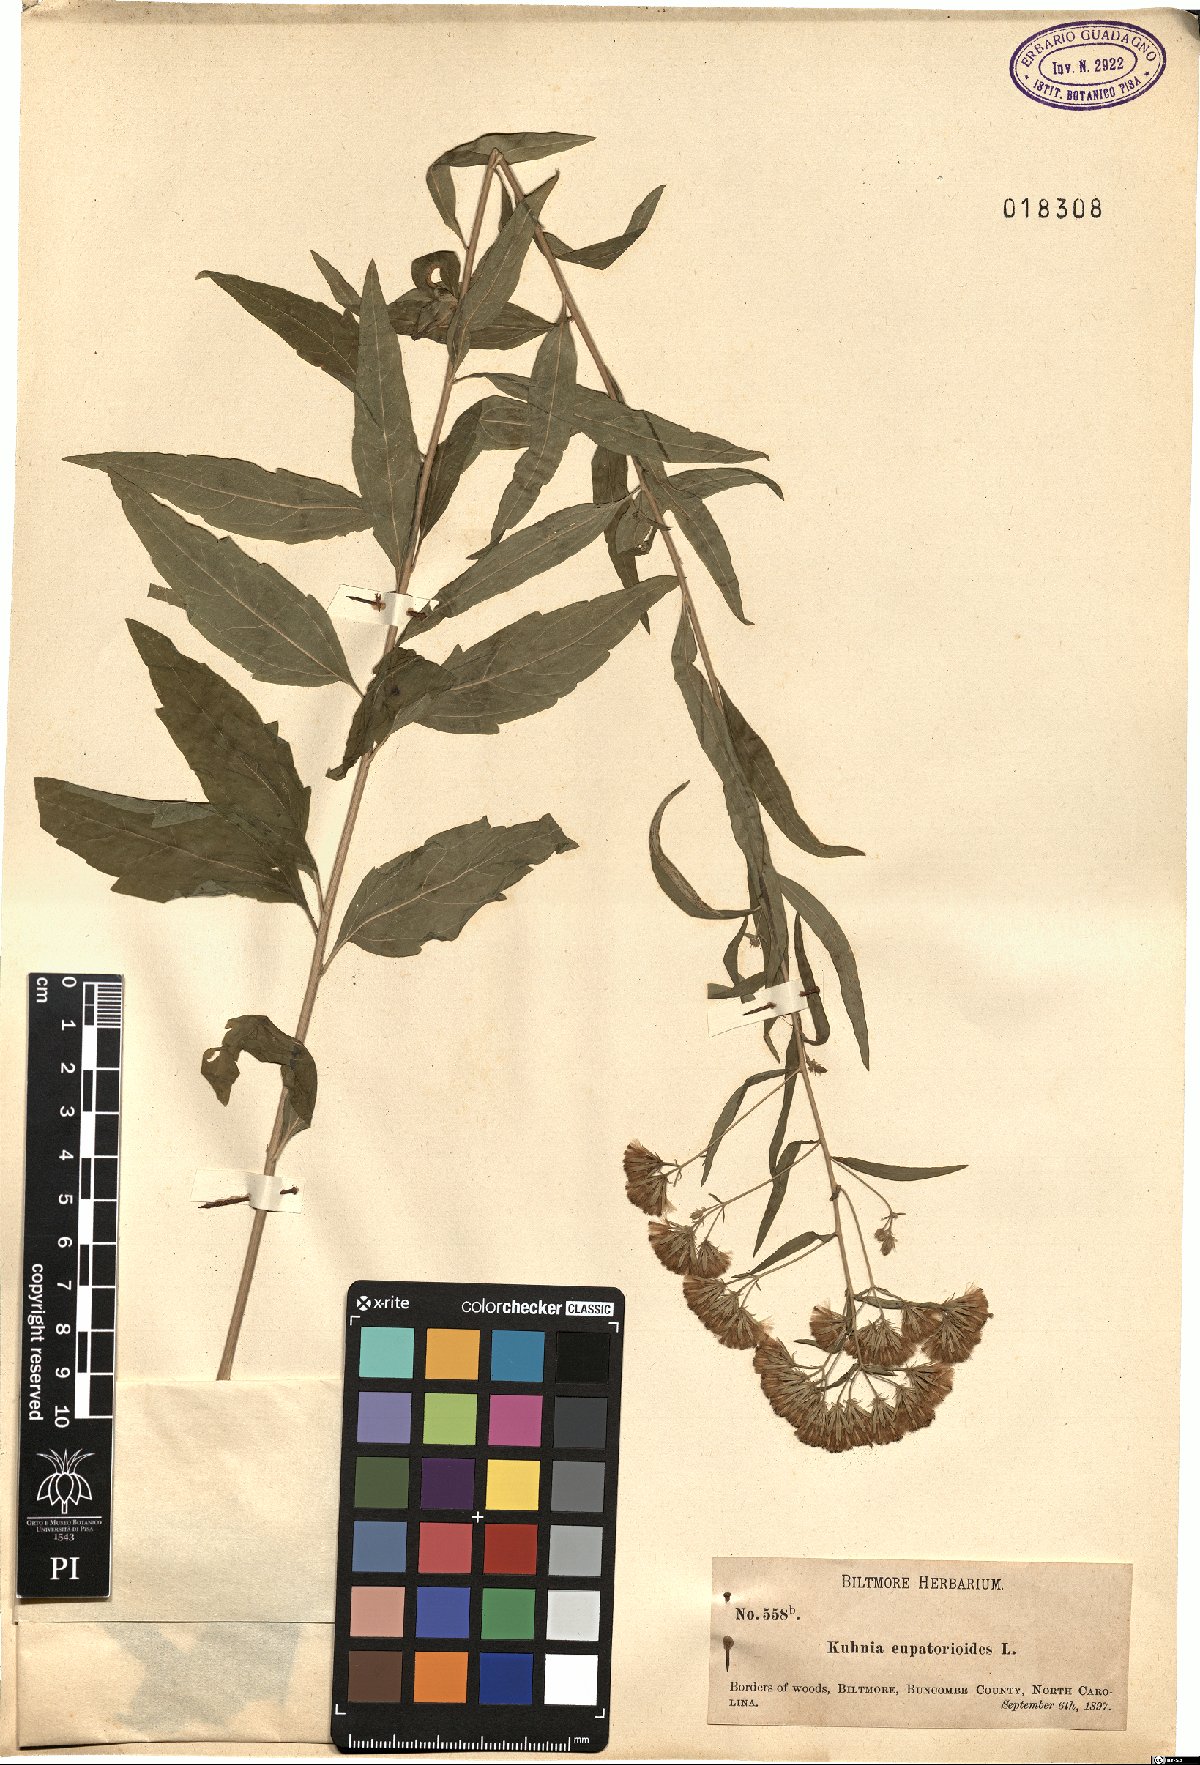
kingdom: Plantae
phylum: Tracheophyta
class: Magnoliopsida
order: Asterales
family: Asteraceae
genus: Brickellia
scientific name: Brickellia eupatorioides
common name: False boneset
